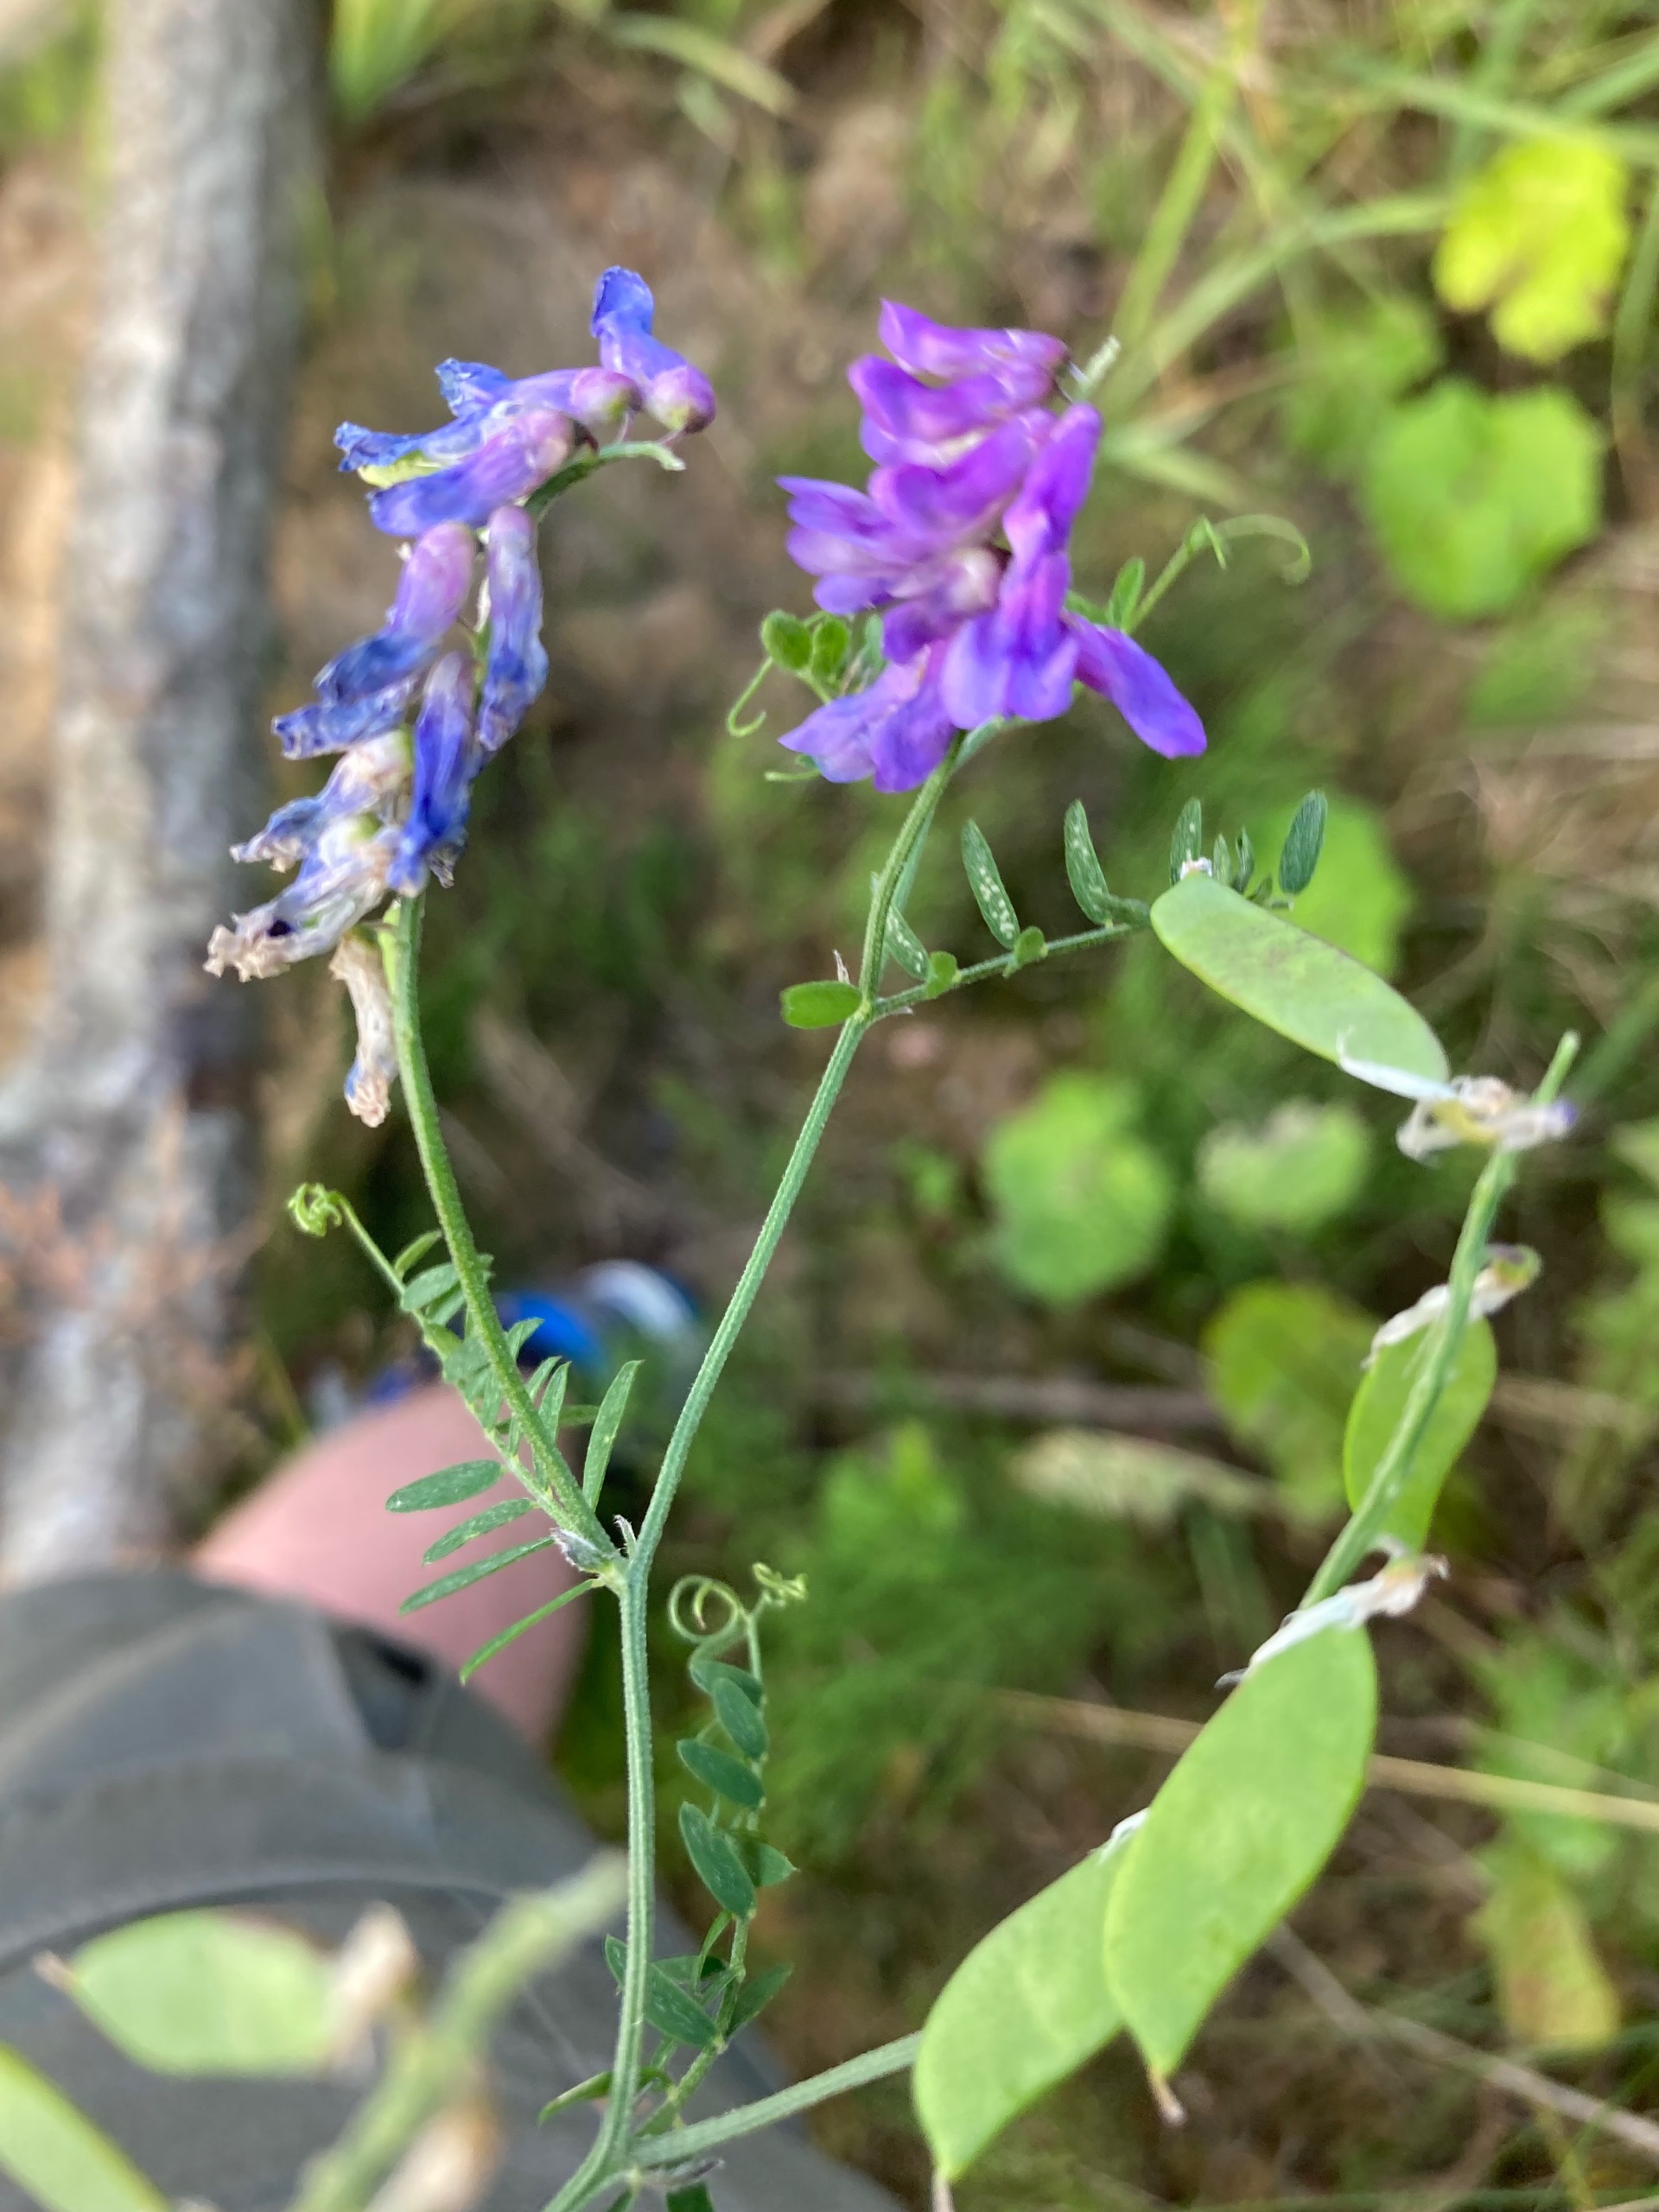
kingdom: Plantae
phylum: Tracheophyta
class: Magnoliopsida
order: Fabales
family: Fabaceae
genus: Vicia
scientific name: Vicia cracca
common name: Muse-vikke
